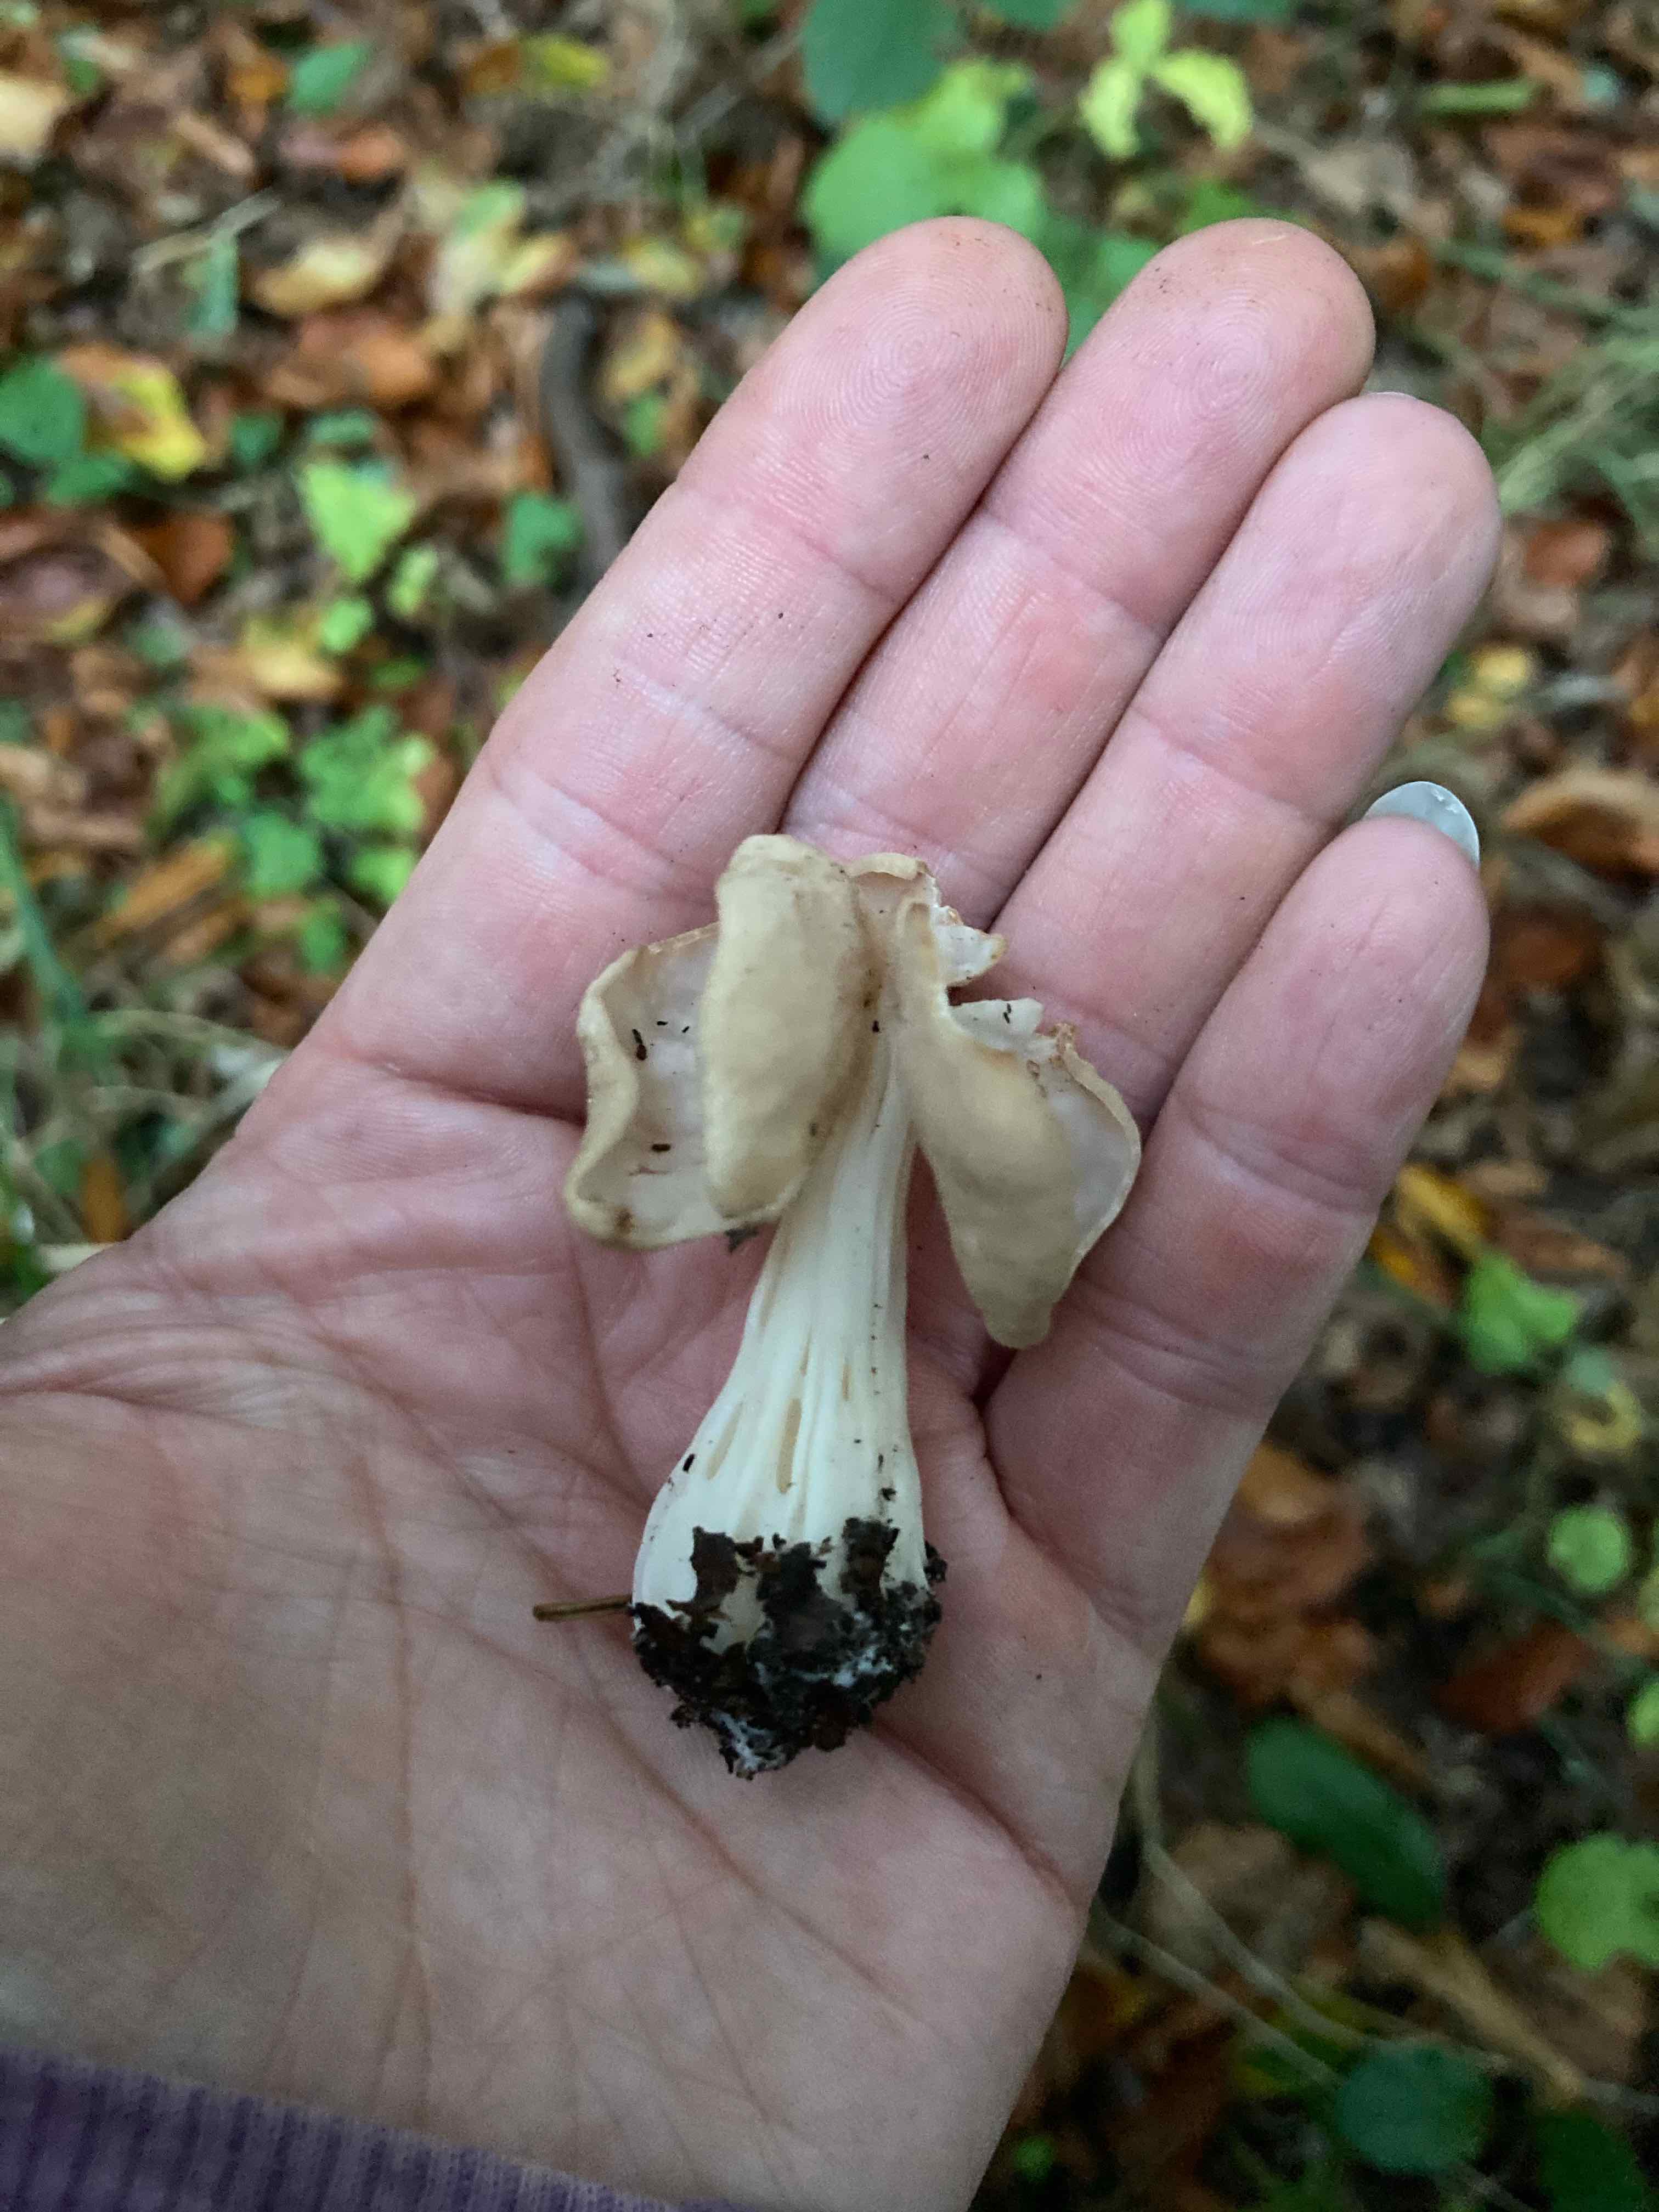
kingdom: Fungi
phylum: Ascomycota
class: Pezizomycetes
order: Pezizales
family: Helvellaceae
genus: Helvella
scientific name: Helvella crispa
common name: kruset foldhat
